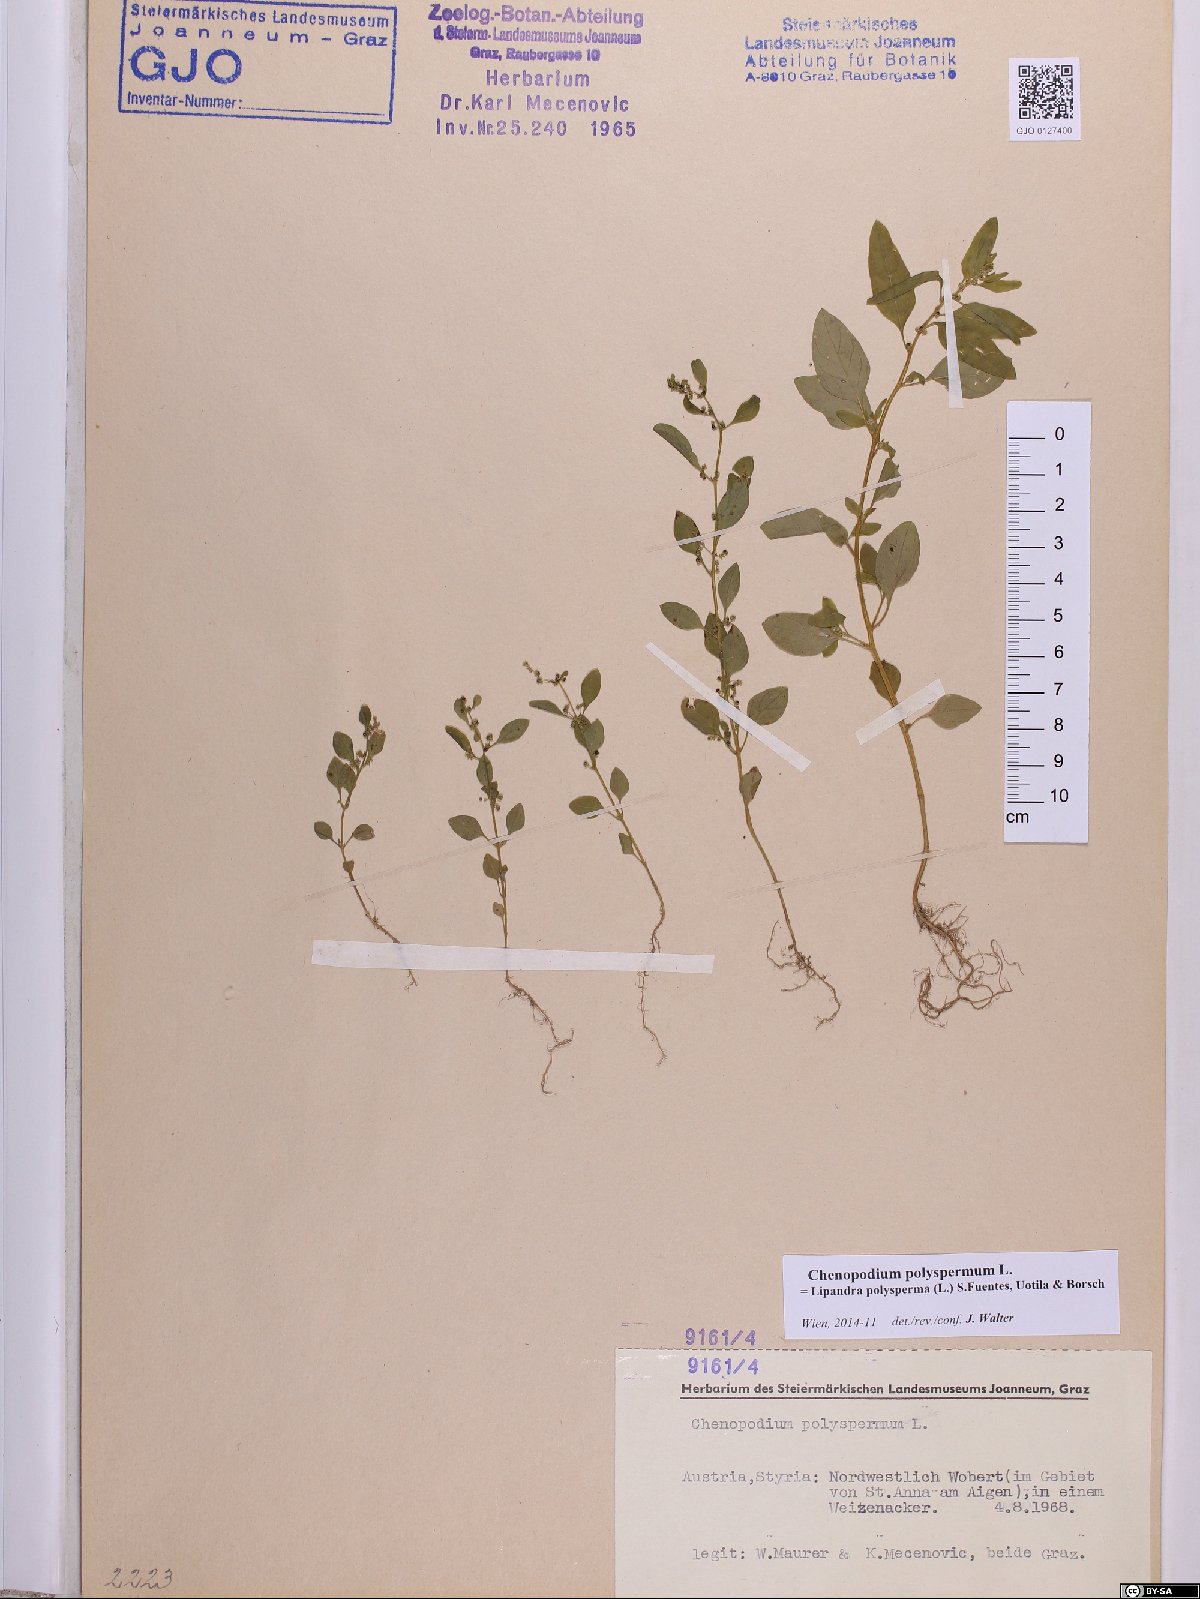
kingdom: Plantae
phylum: Tracheophyta
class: Magnoliopsida
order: Caryophyllales
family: Amaranthaceae
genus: Lipandra
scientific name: Lipandra polysperma
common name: Many-seed goosefoot
